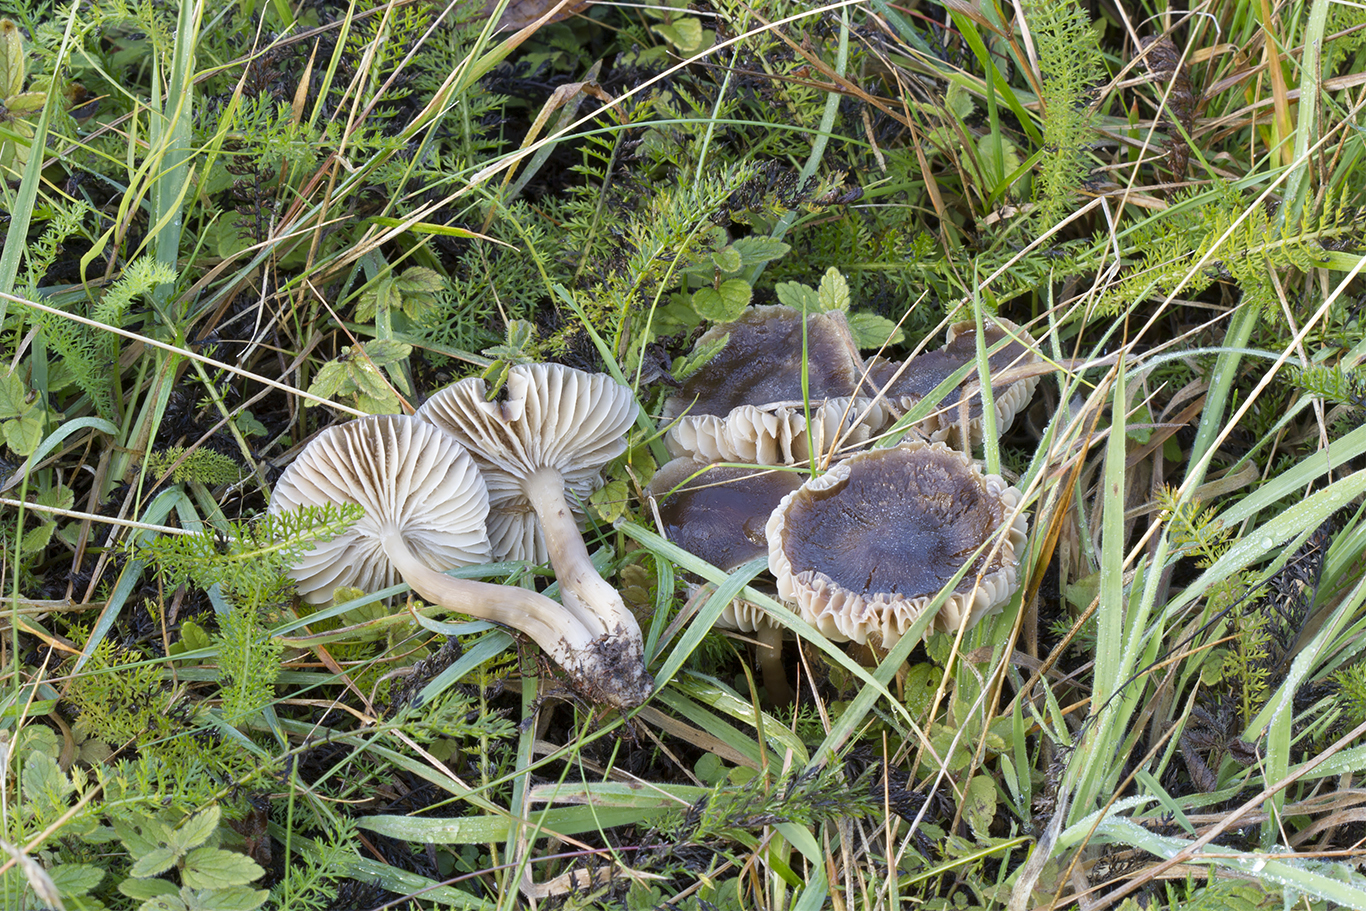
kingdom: Fungi
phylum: Basidiomycota
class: Agaricomycetes
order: Agaricales
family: Hygrophoraceae
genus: Neohygrocybe
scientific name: Neohygrocybe nitrata
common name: stinkende vokshat
